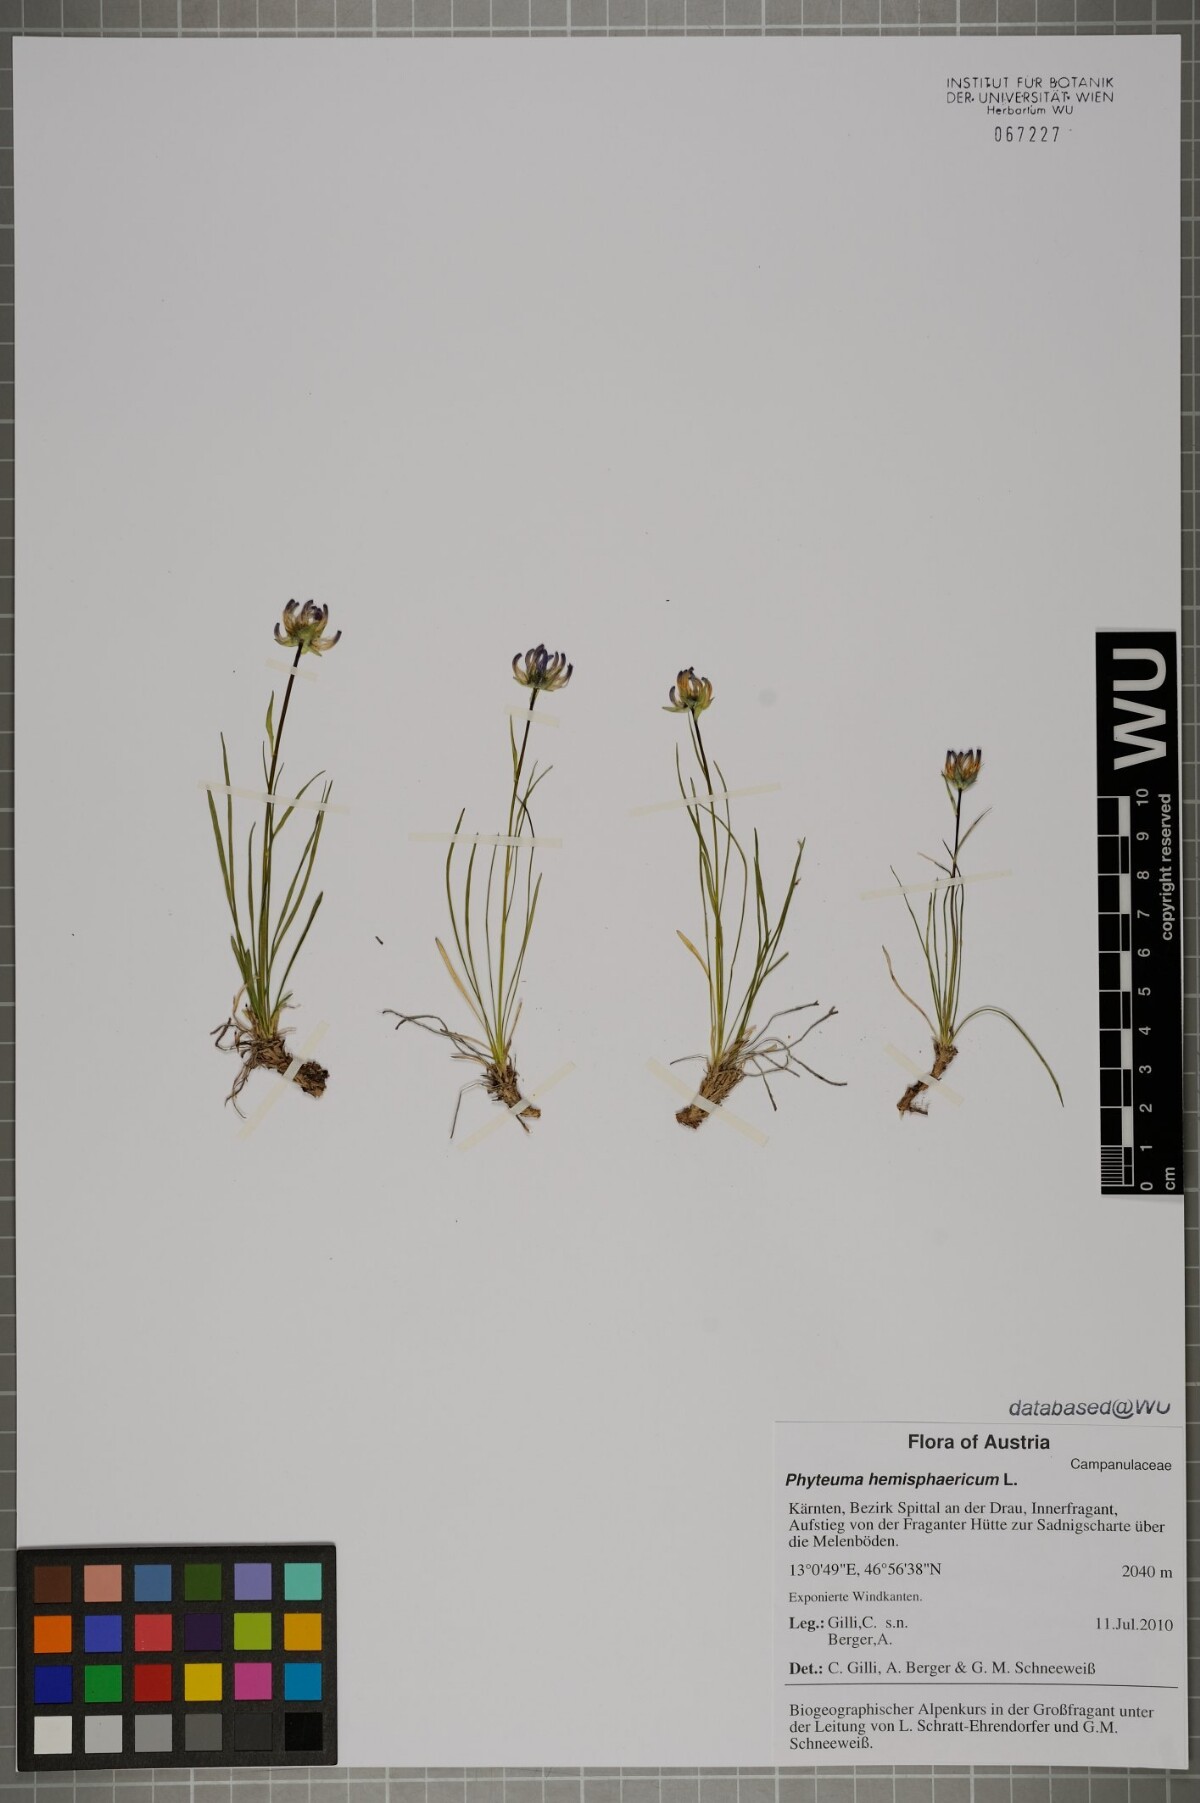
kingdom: Plantae
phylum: Tracheophyta
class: Magnoliopsida
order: Asterales
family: Campanulaceae
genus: Phyteuma
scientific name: Phyteuma hemisphaericum
